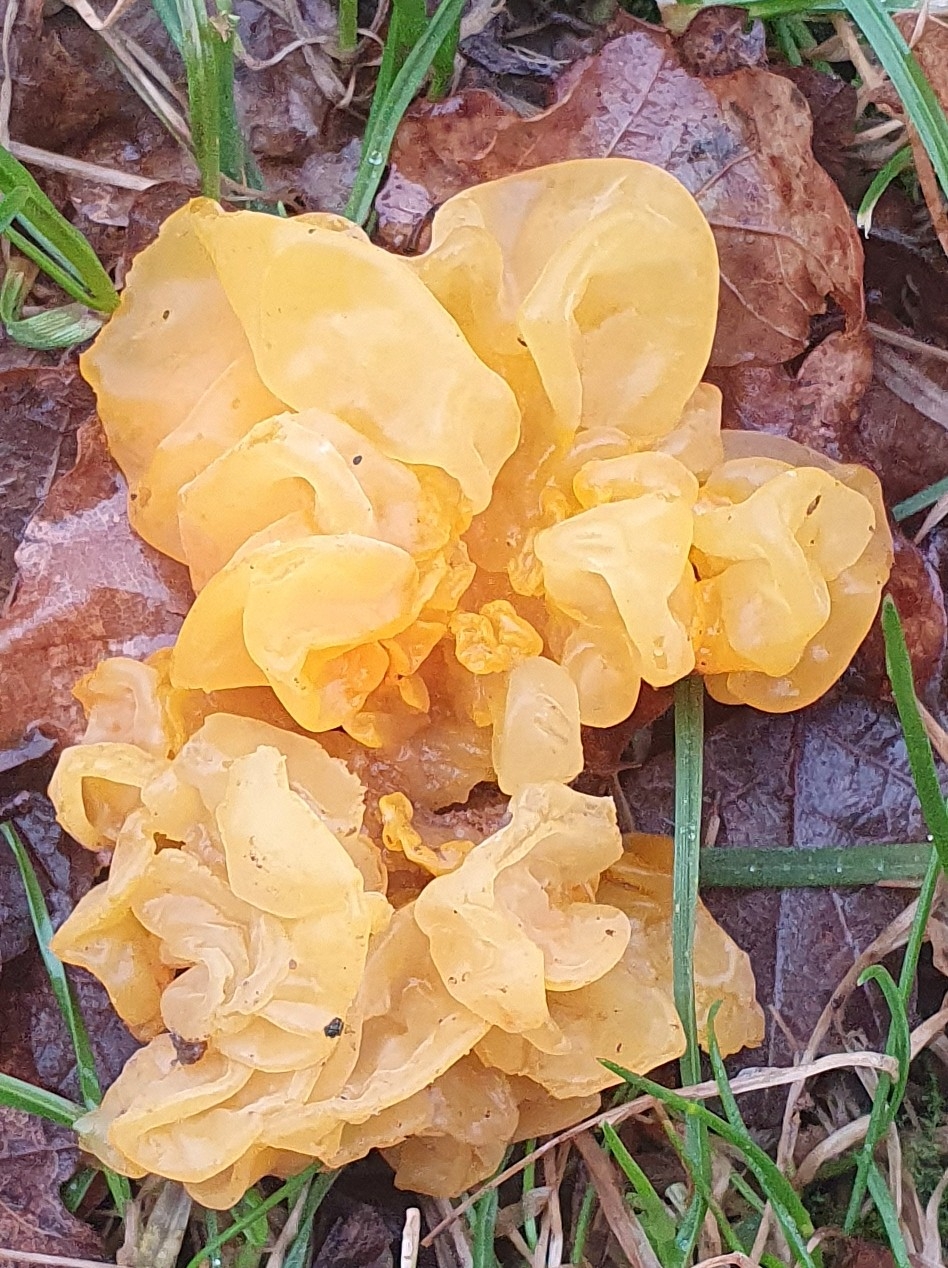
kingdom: Fungi
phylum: Basidiomycota
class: Tremellomycetes
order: Tremellales
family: Tremellaceae
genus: Tremella
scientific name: Tremella mesenterica
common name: gul bævresvamp
